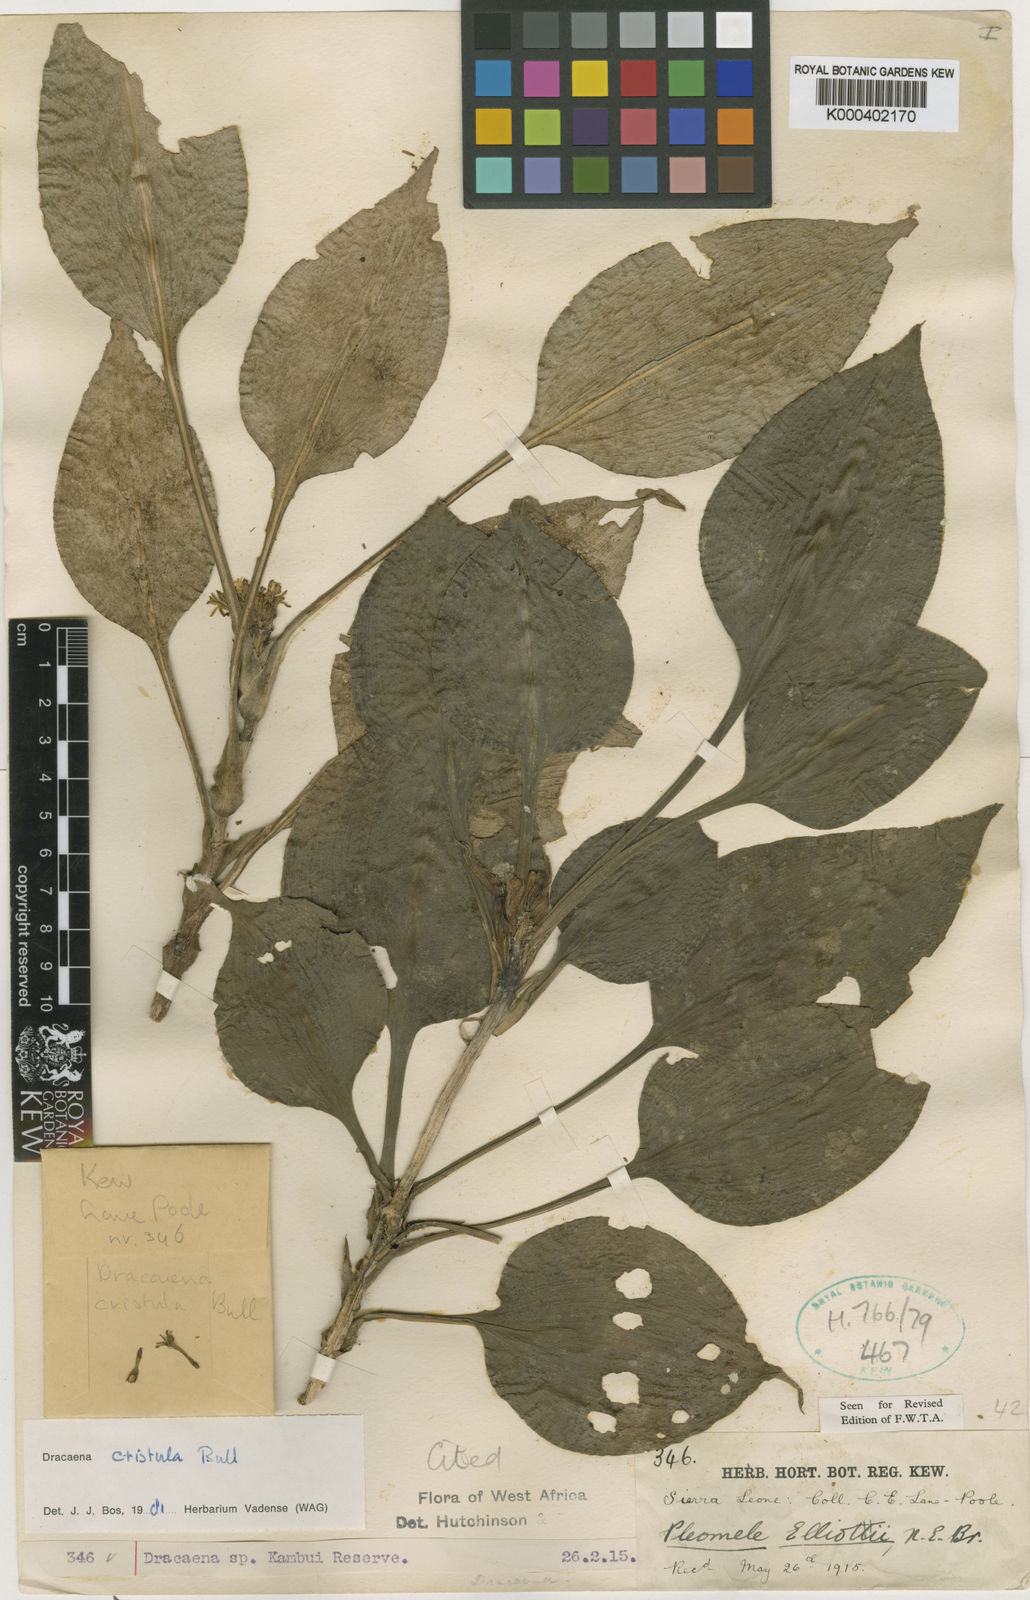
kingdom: Plantae
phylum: Tracheophyta
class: Liliopsida
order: Asparagales
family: Asparagaceae
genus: Dracaena
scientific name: Dracaena cristula
